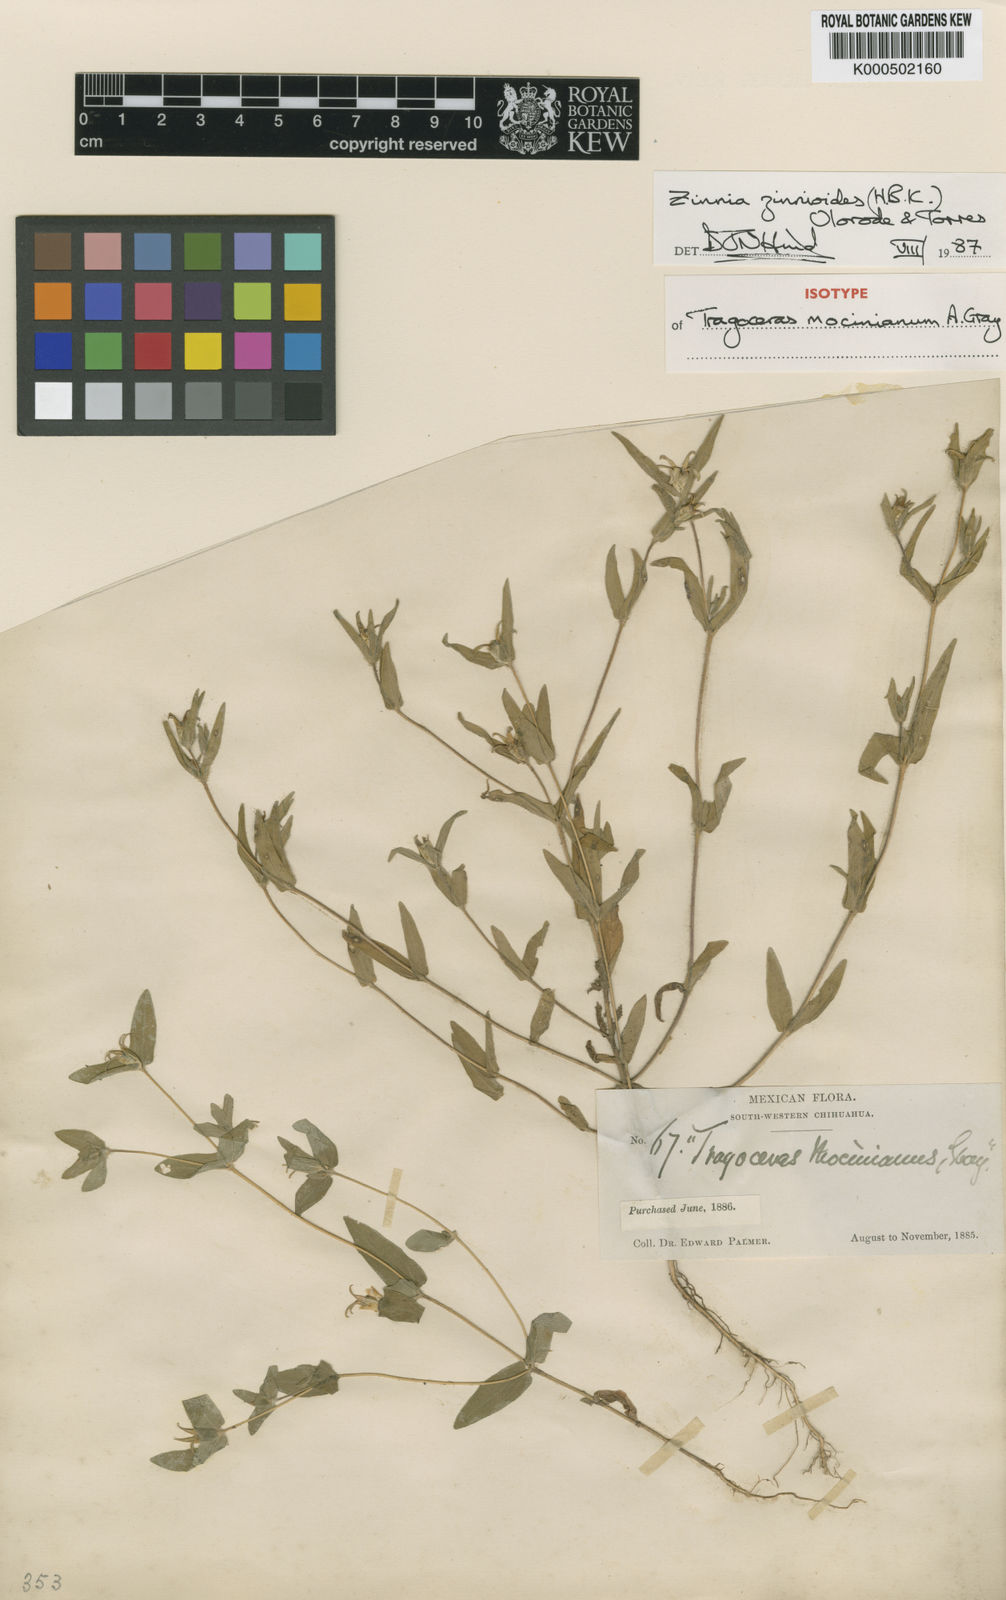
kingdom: Plantae
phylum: Tracheophyta
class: Magnoliopsida
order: Asterales
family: Asteraceae
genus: Zinnia
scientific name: Zinnia zinnioides
